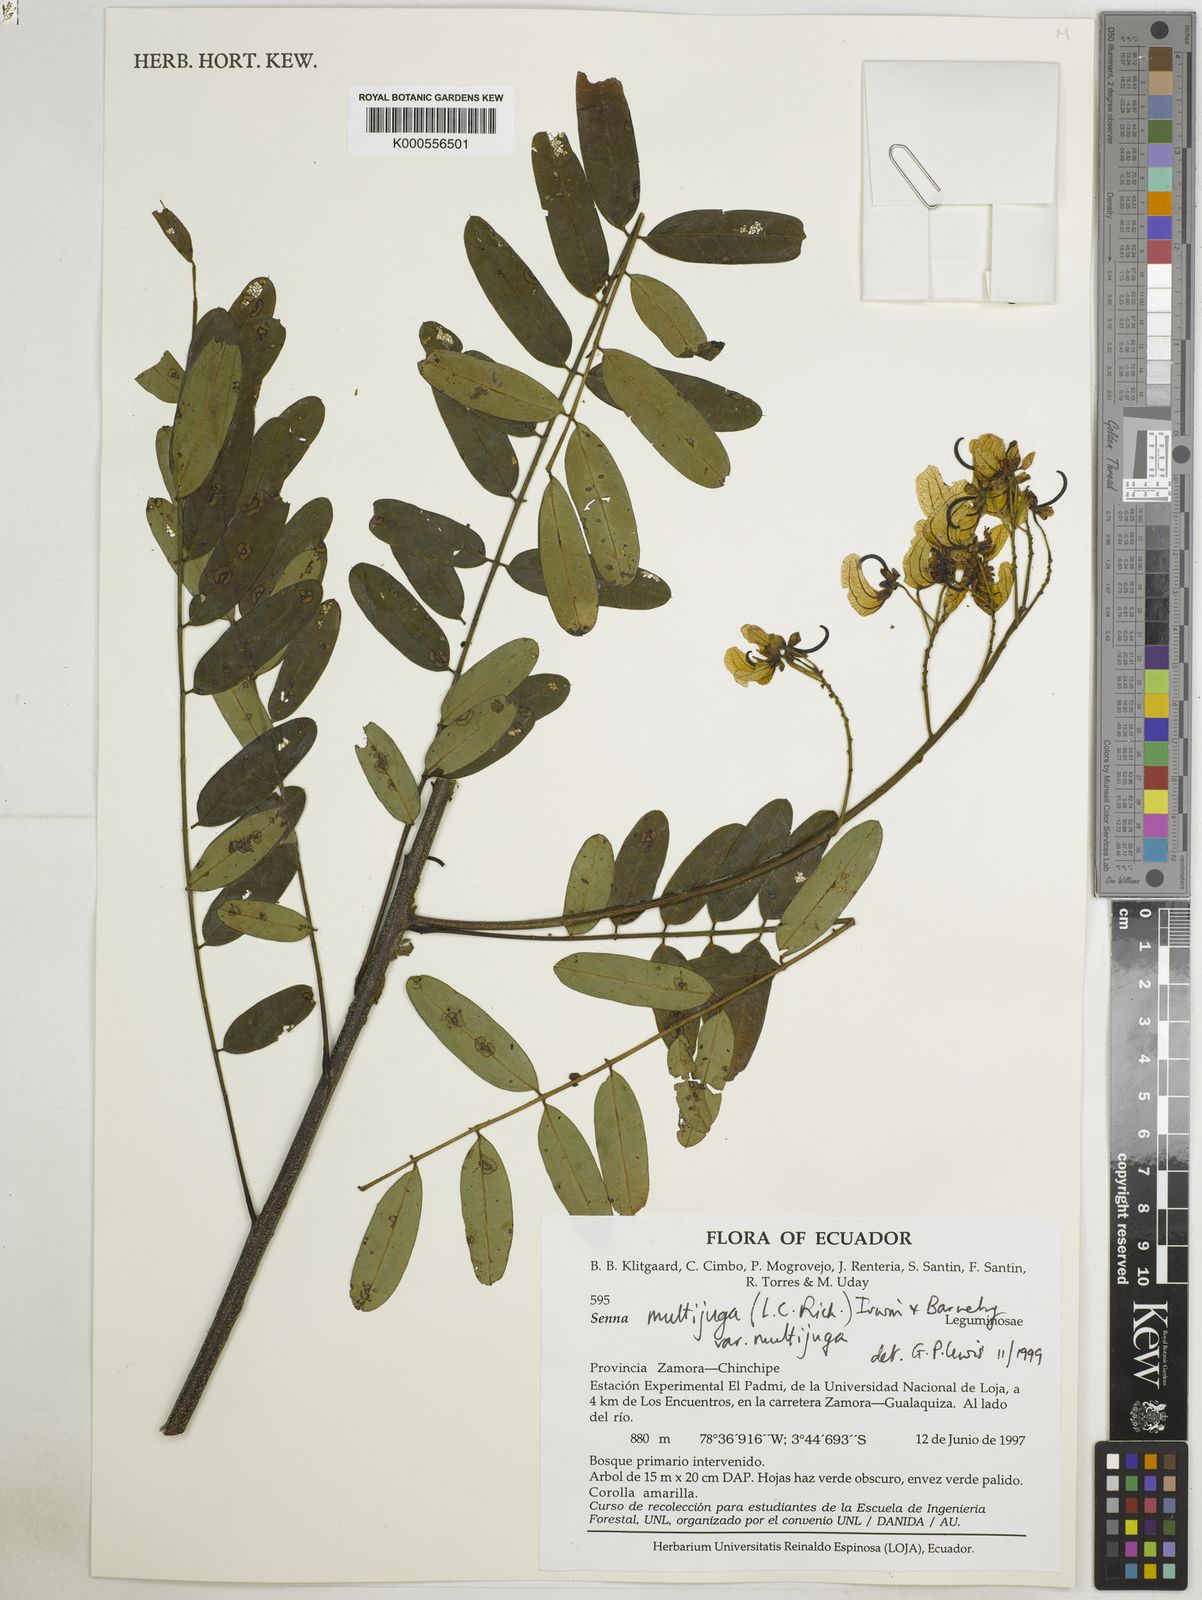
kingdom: Plantae
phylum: Tracheophyta
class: Magnoliopsida
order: Fabales
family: Fabaceae
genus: Senna
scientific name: Senna multijuga
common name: False sicklepod
